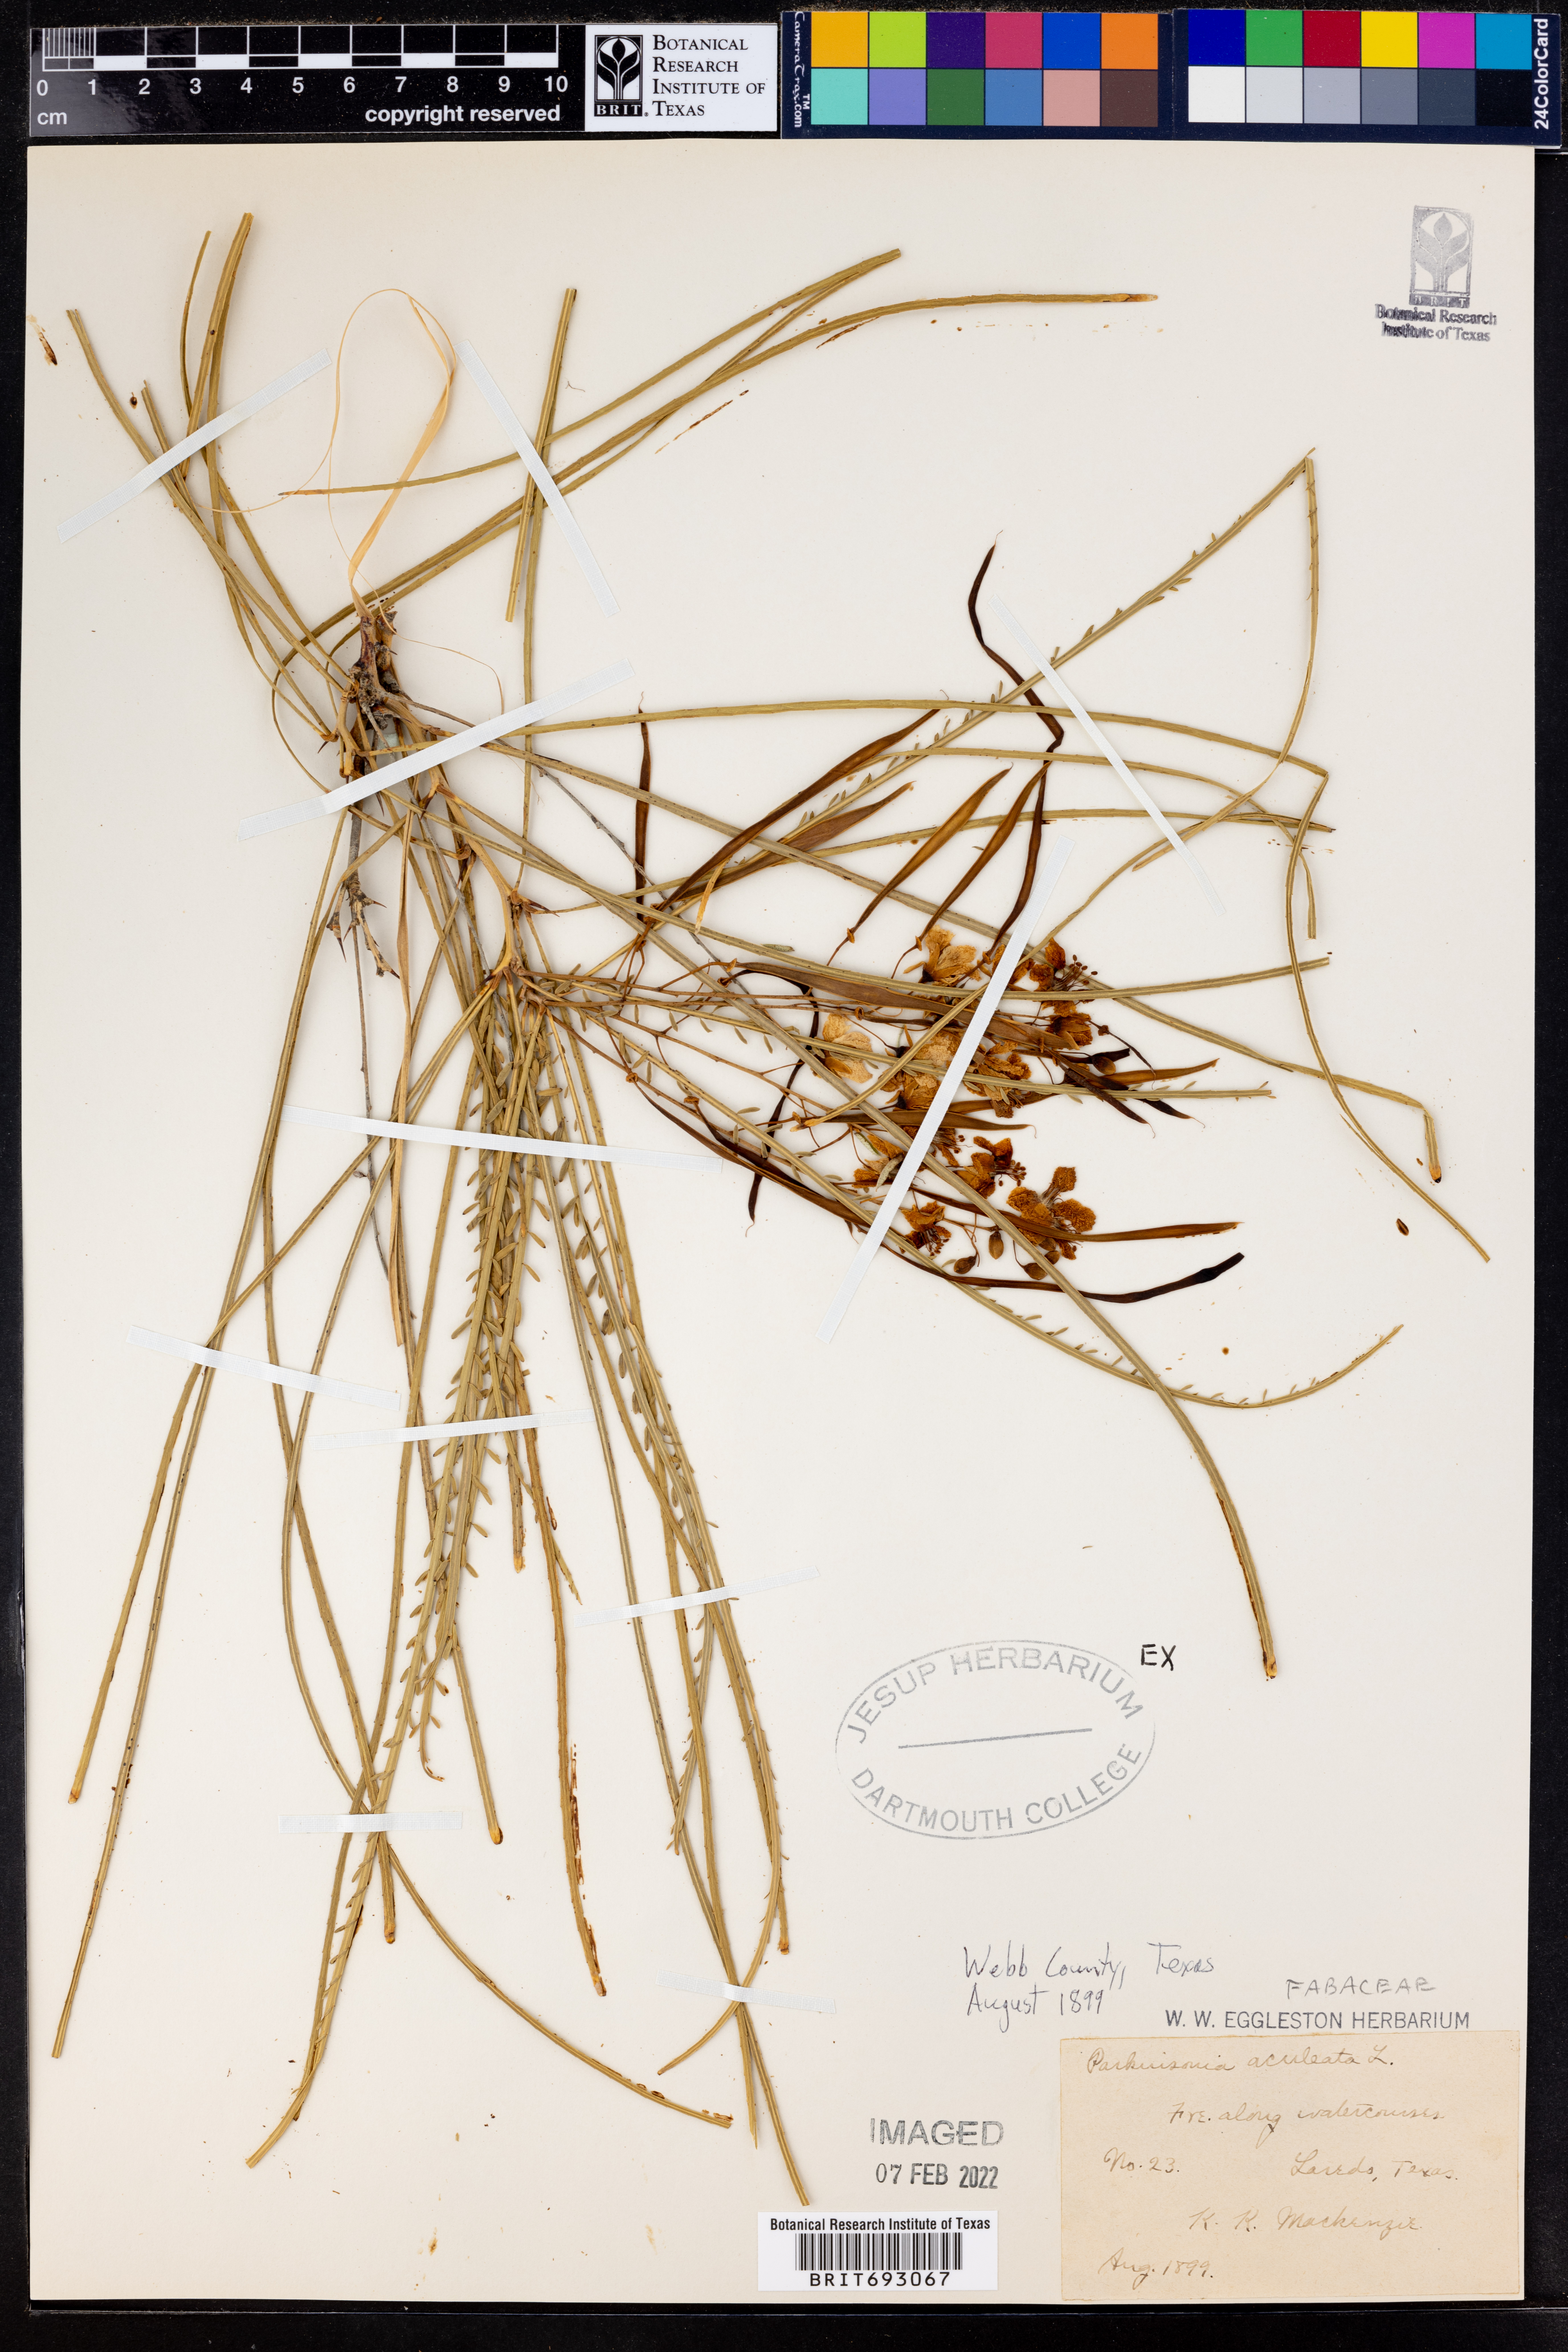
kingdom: Plantae
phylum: Tracheophyta
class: Magnoliopsida
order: Fabales
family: Fabaceae
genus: Parkinsonia
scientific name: Parkinsonia aculeata
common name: Jerusalem thorn
